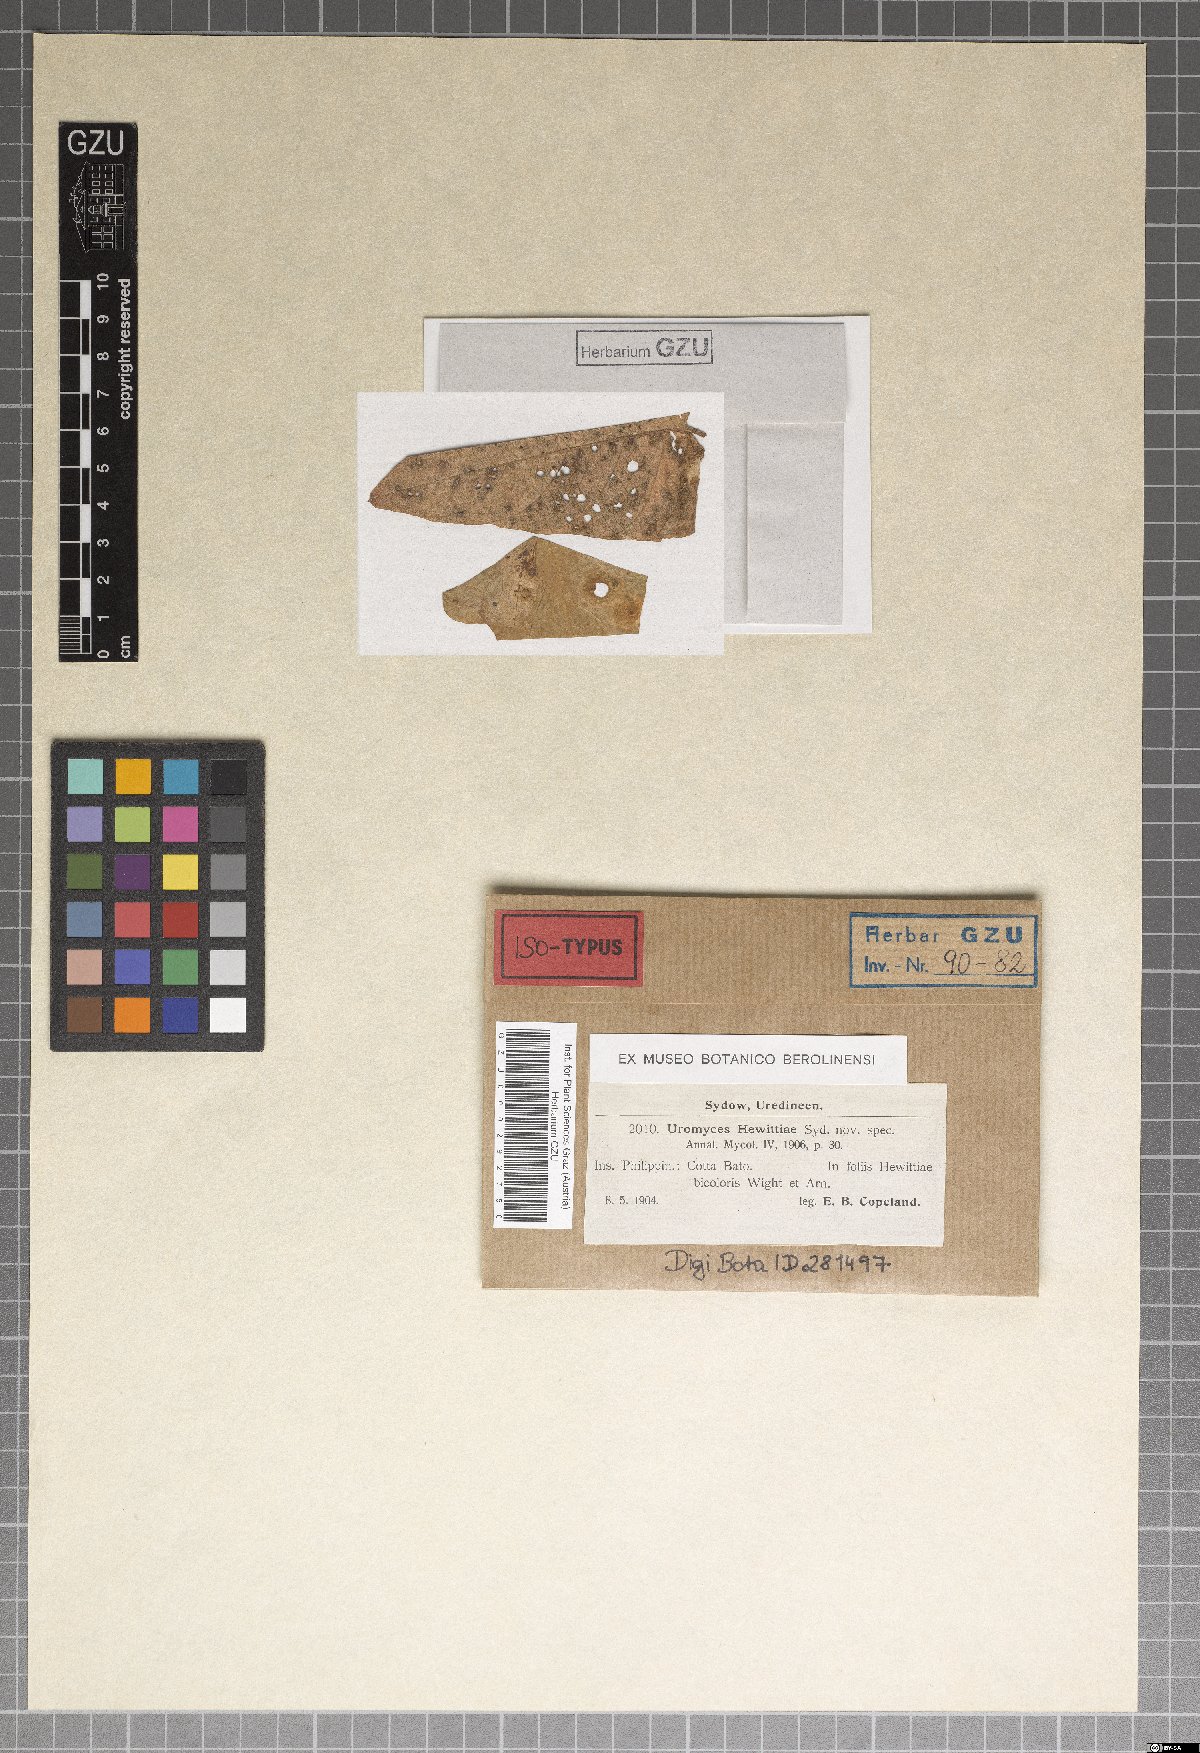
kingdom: Fungi
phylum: Basidiomycota
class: Pucciniomycetes
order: Pucciniales
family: Pucciniaceae
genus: Uromyces
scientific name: Uromyces hewittiae
